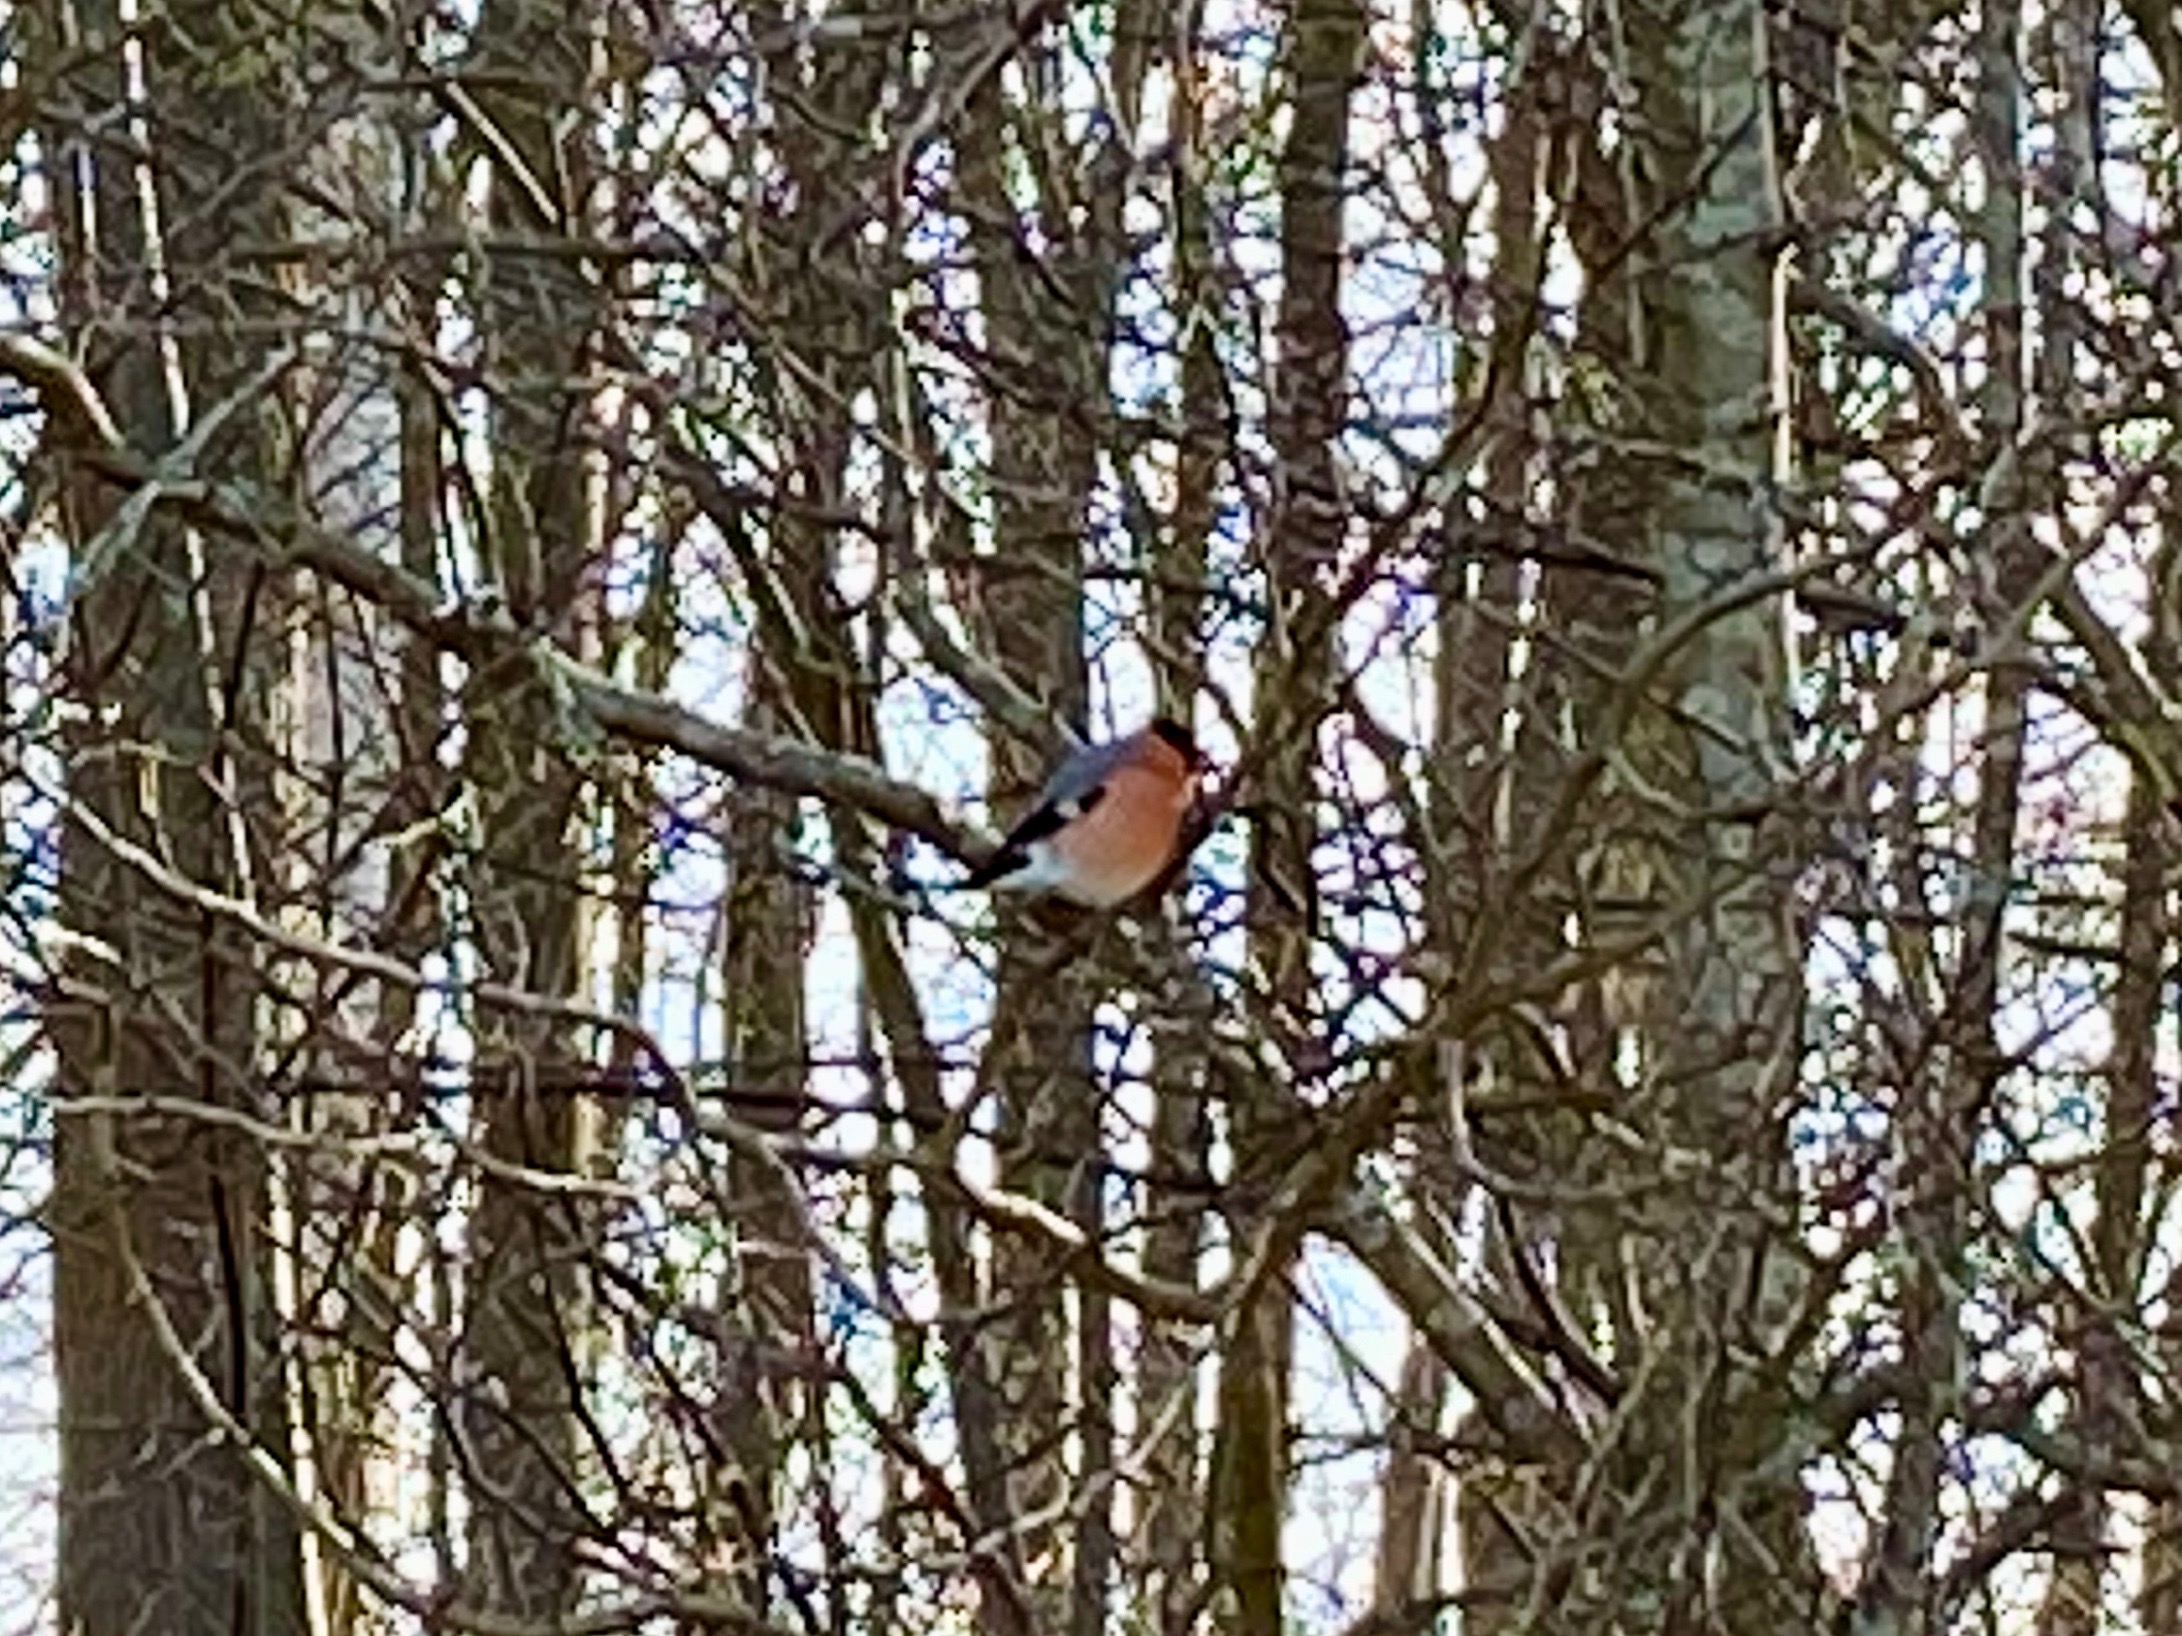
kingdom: Animalia
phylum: Chordata
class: Aves
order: Passeriformes
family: Fringillidae
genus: Pyrrhula
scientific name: Pyrrhula pyrrhula
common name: Dompap
